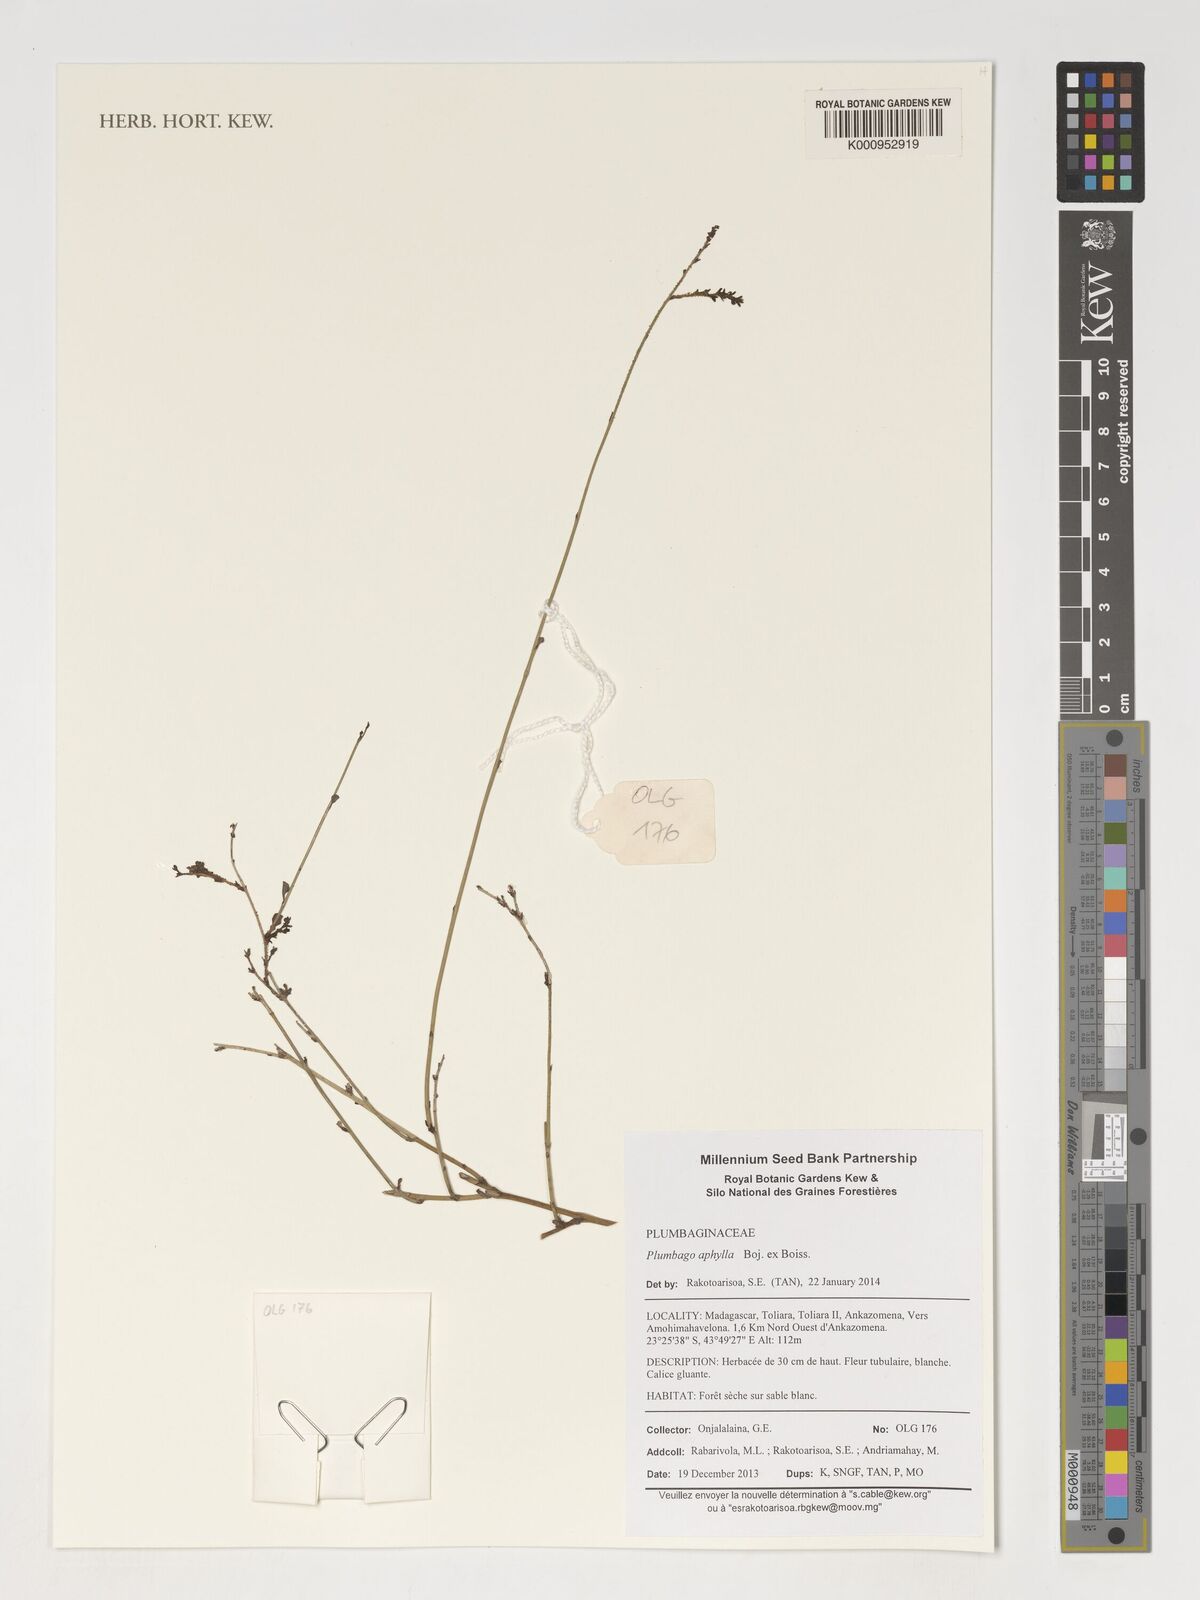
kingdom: Plantae
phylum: Tracheophyta
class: Magnoliopsida
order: Caryophyllales
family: Plumbaginaceae
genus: Plumbago
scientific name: Plumbago aphylla
